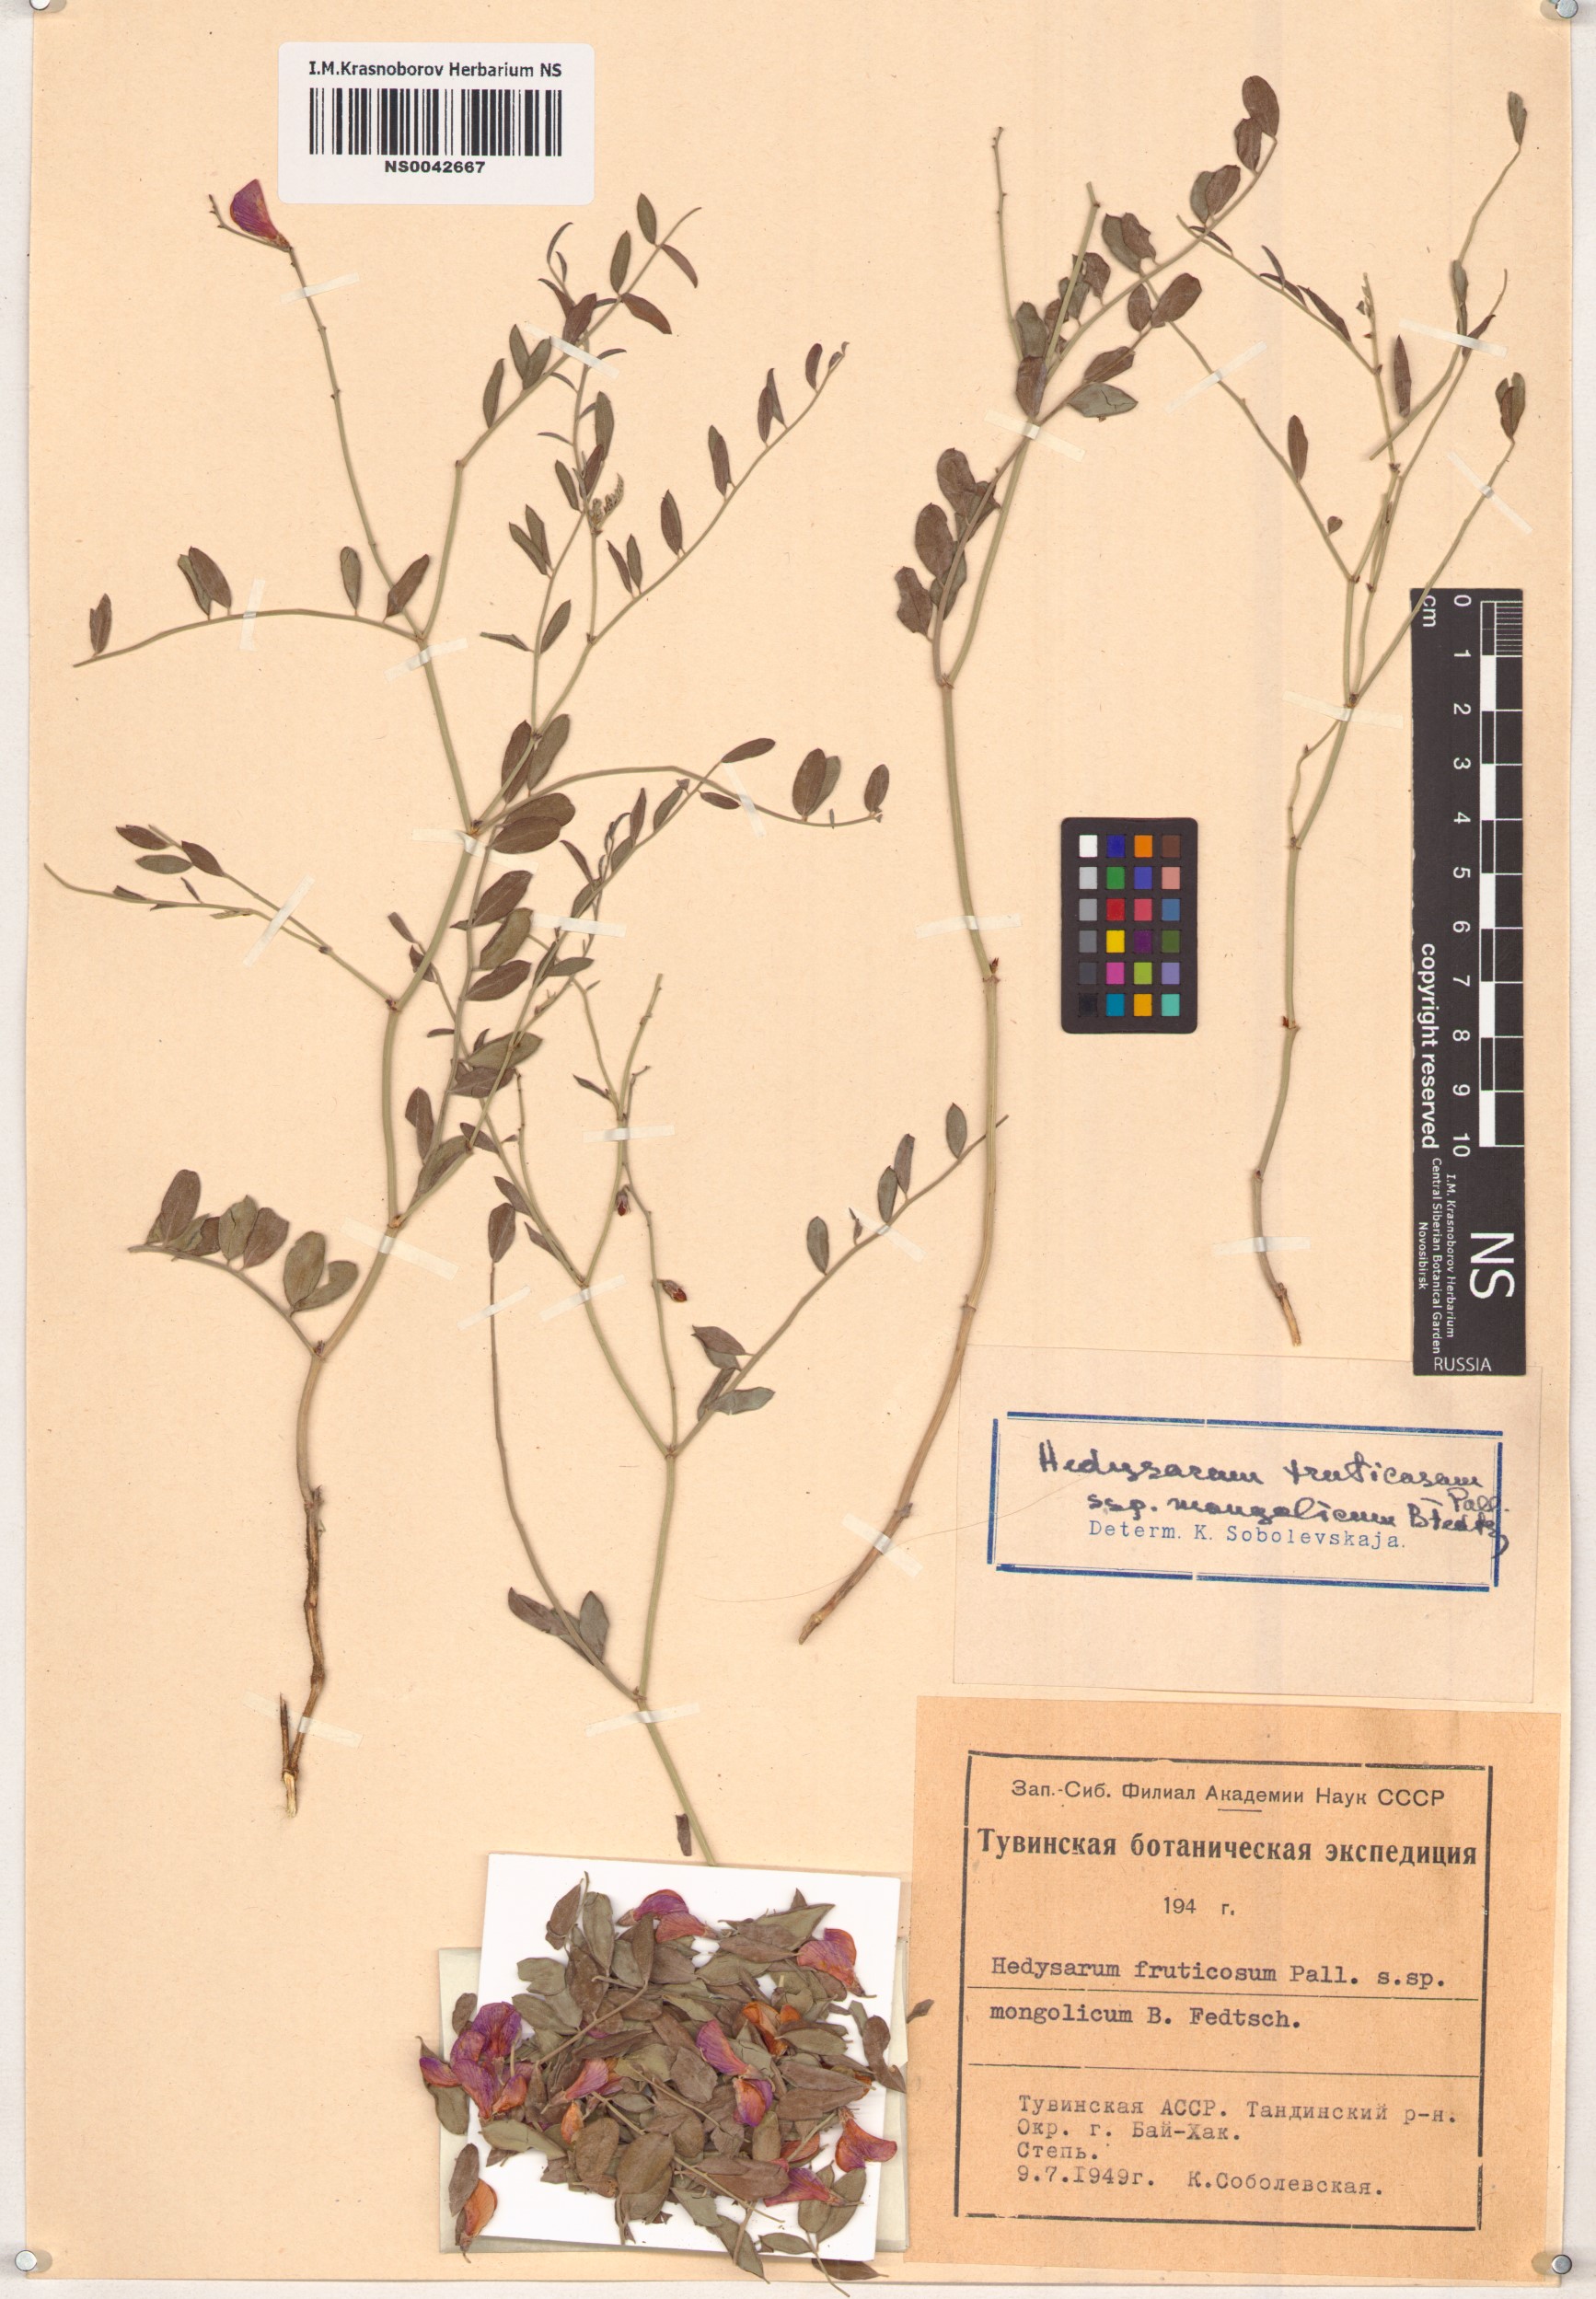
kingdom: Plantae
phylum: Tracheophyta
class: Magnoliopsida
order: Fabales
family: Fabaceae
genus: Corethrodendron
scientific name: Corethrodendron fruticosum
